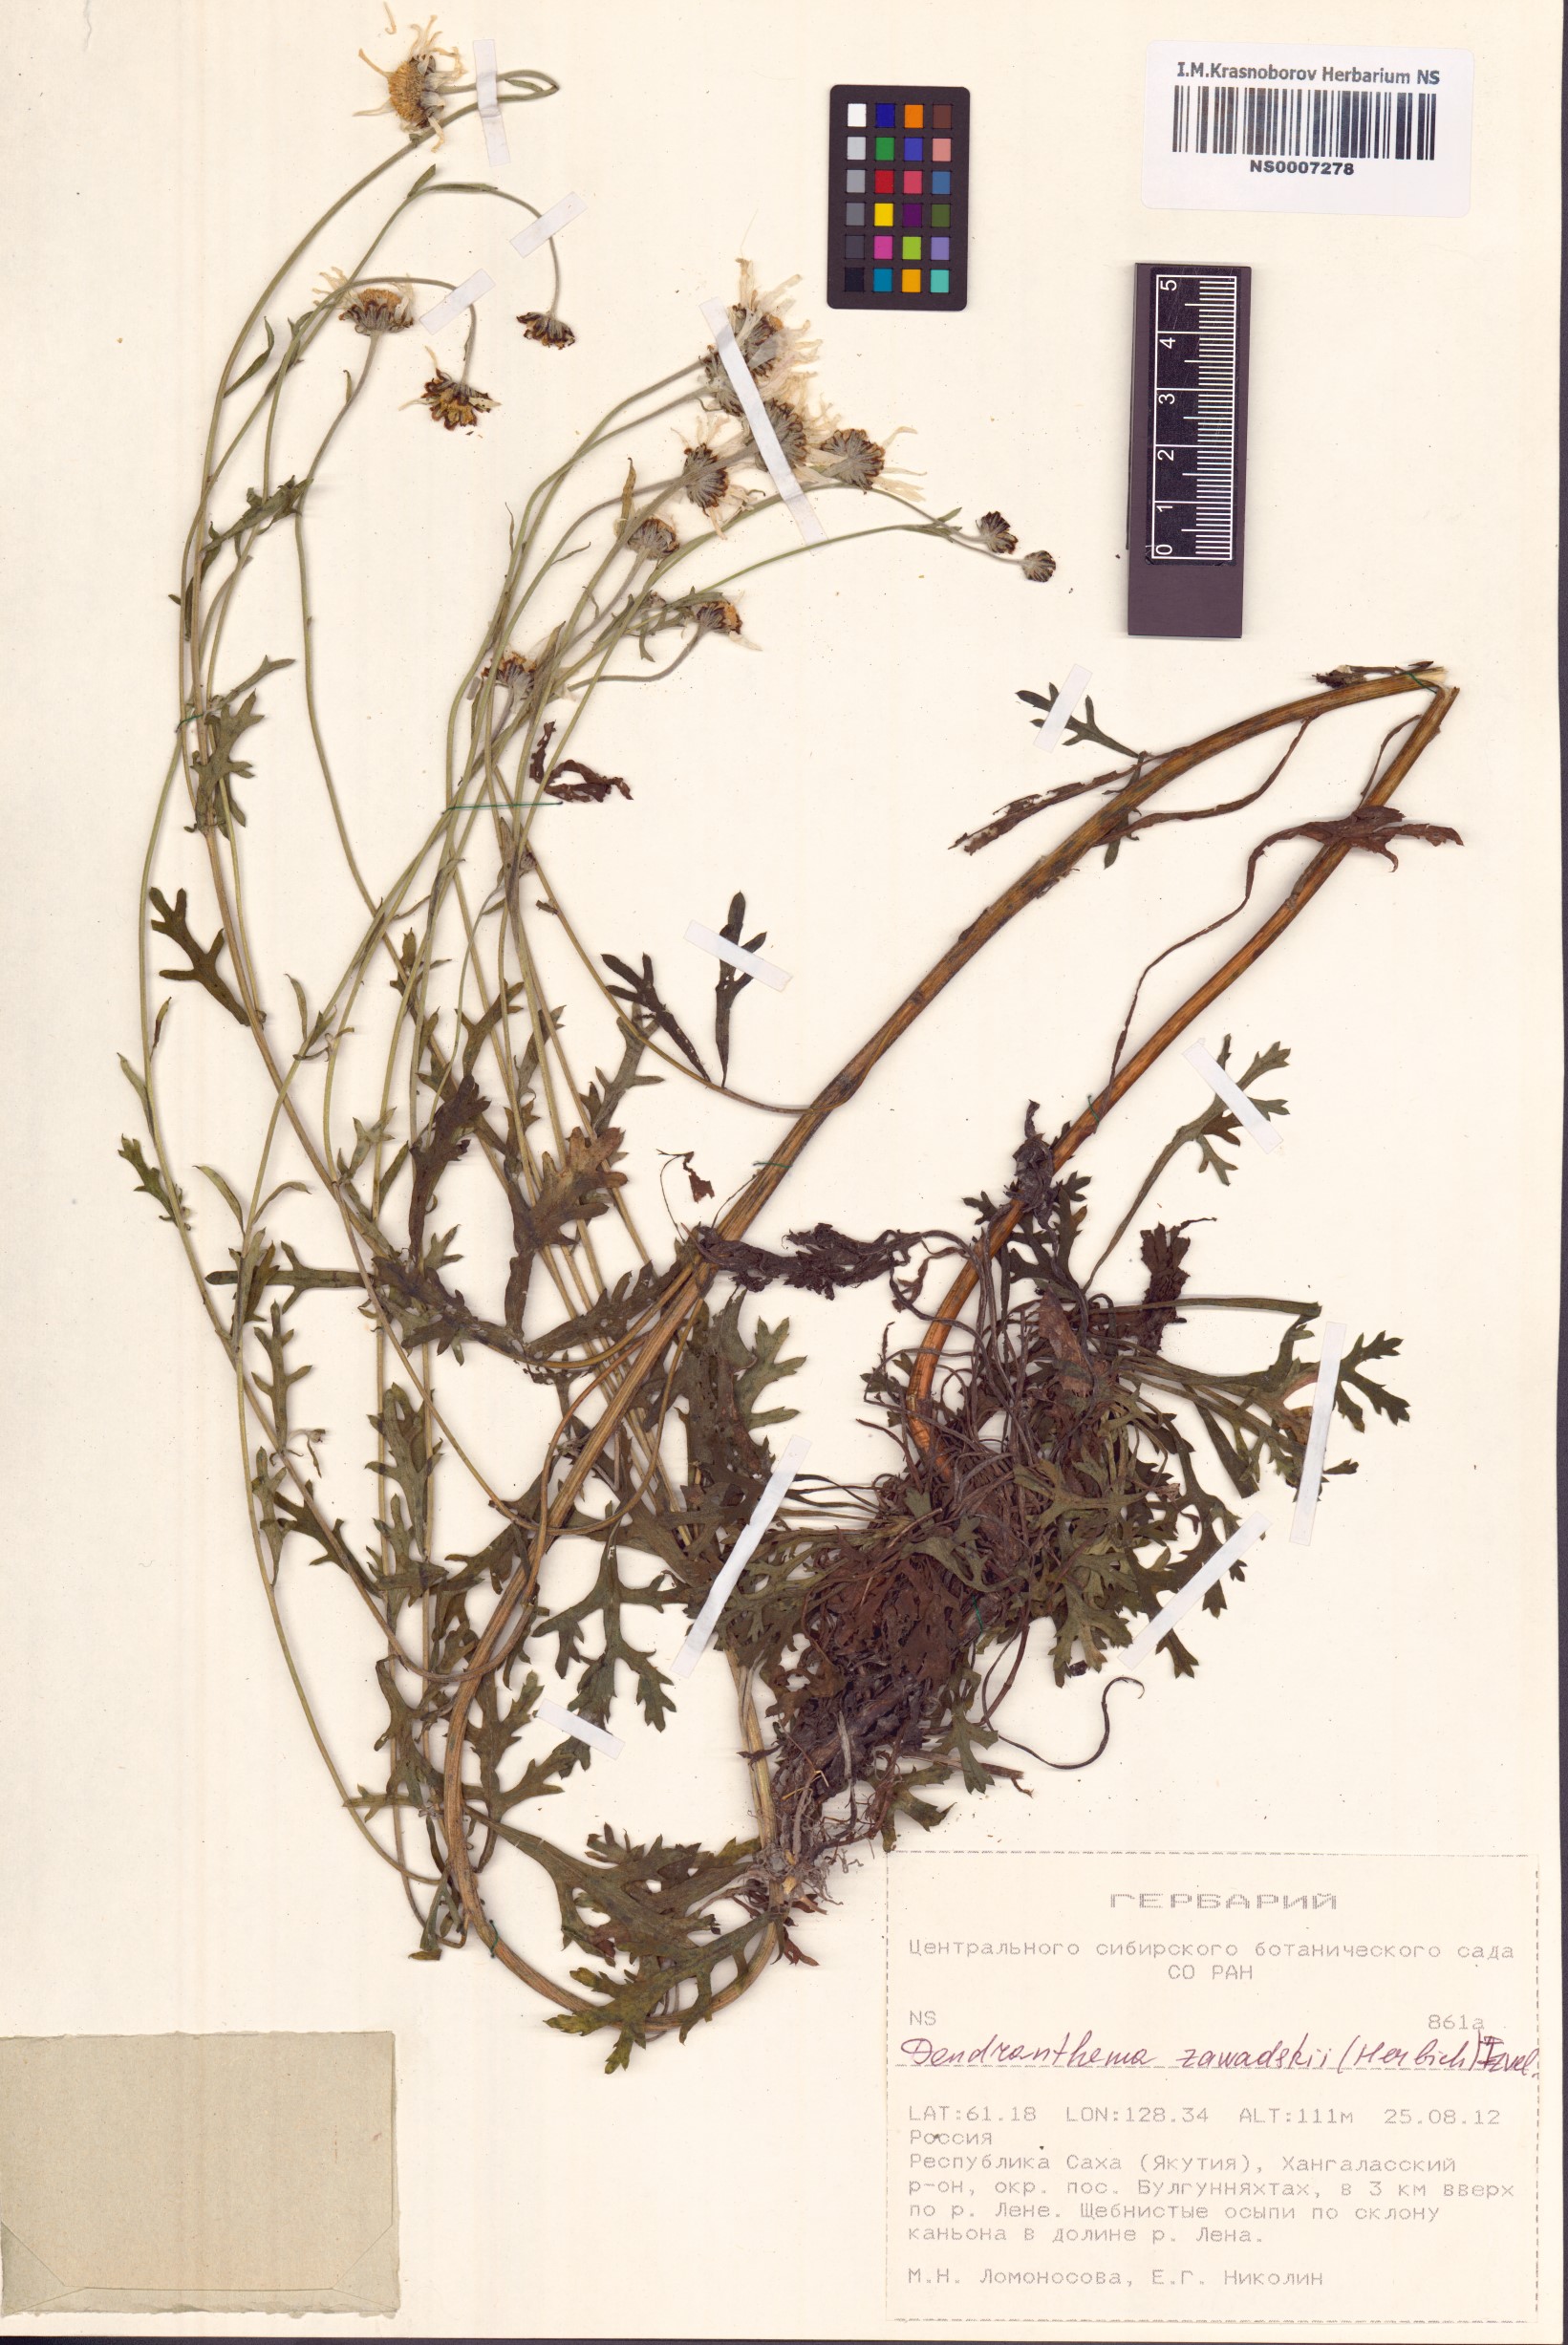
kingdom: Plantae
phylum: Tracheophyta
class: Magnoliopsida
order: Asterales
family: Asteraceae
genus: Chrysanthemum
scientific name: Chrysanthemum zawadzkii
